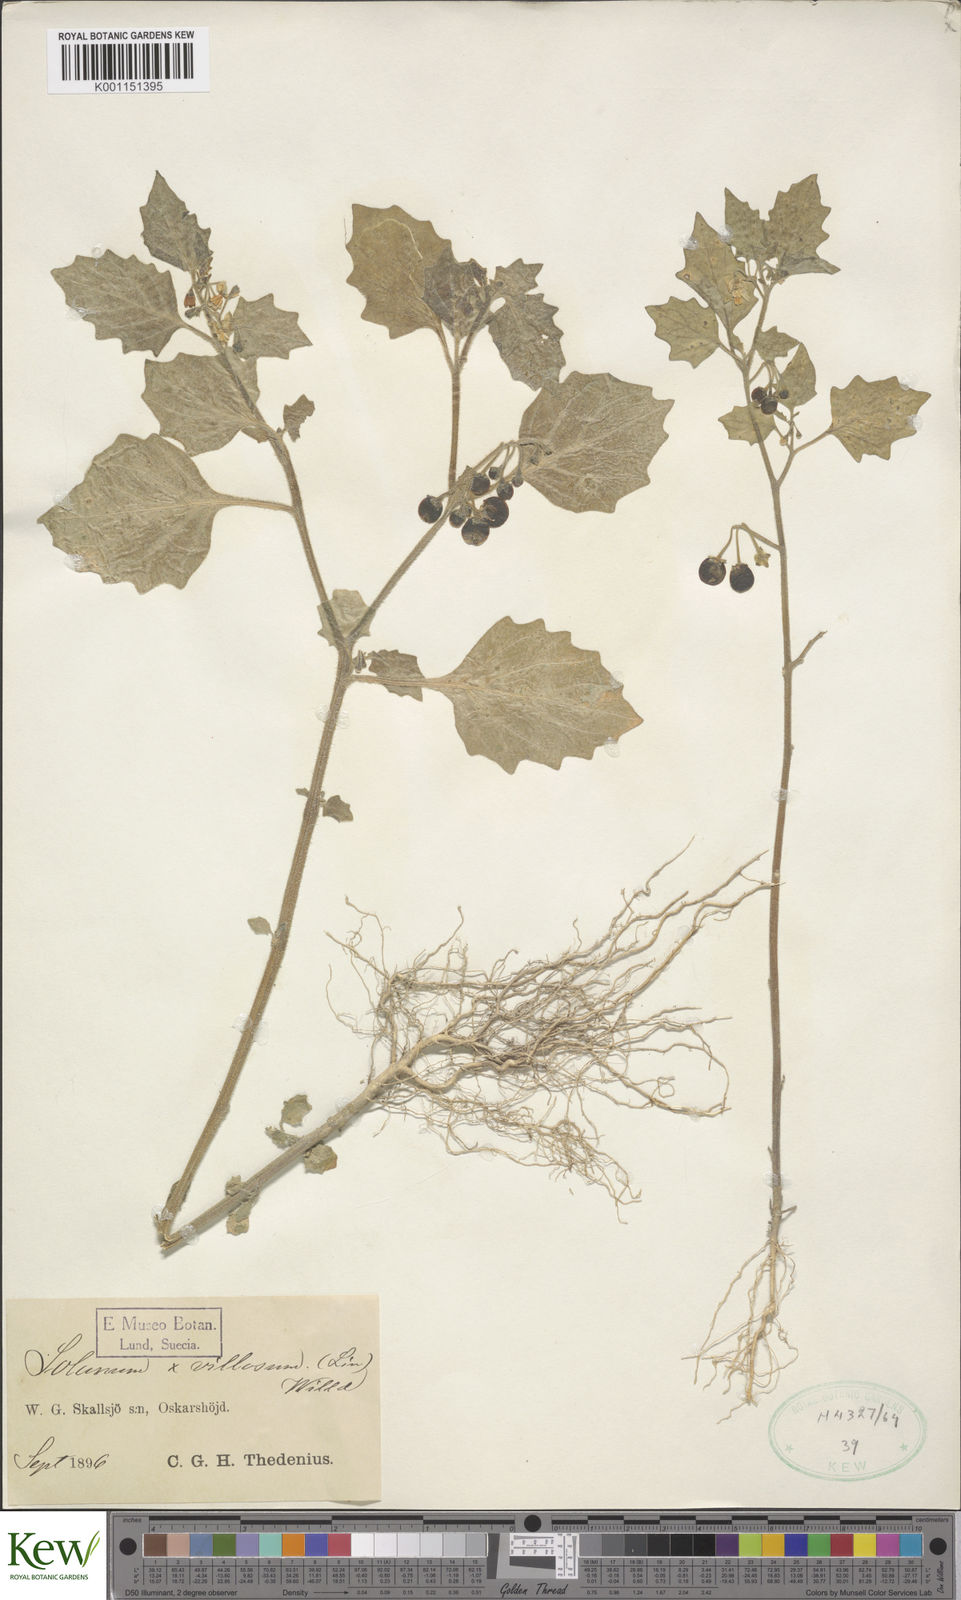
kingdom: Plantae
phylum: Tracheophyta
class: Magnoliopsida
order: Solanales
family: Solanaceae
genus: Solanum
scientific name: Solanum villosum
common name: Red nightshade
